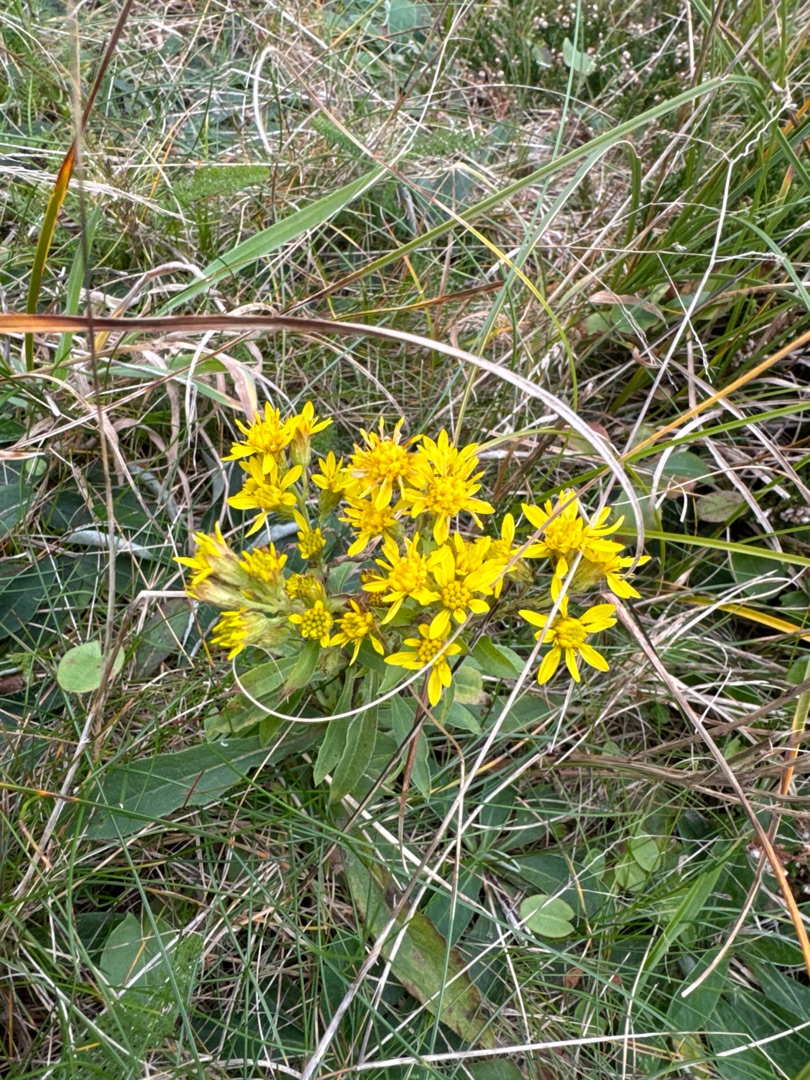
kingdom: Plantae
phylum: Tracheophyta
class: Magnoliopsida
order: Asterales
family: Asteraceae
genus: Solidago
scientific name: Solidago virgaurea
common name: Almindelig gyldenris
